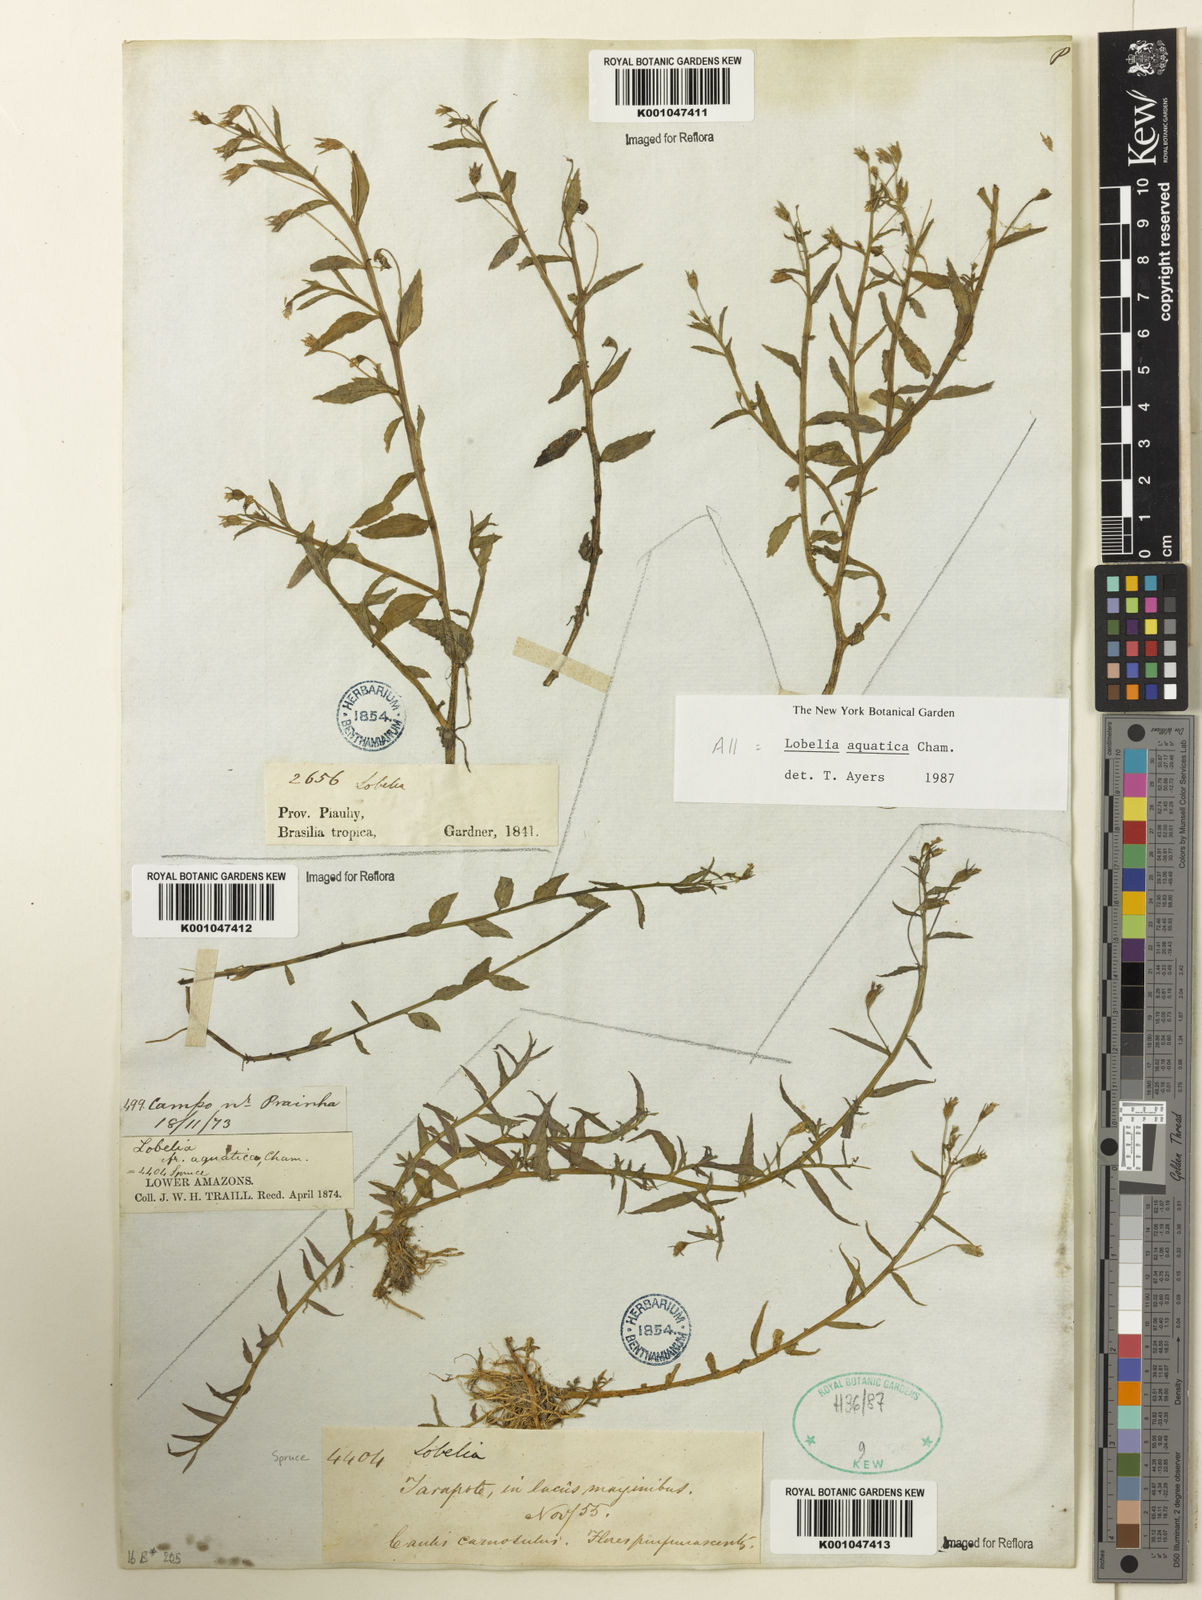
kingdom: Plantae
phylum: Tracheophyta
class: Magnoliopsida
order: Asterales
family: Campanulaceae
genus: Lobelia
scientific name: Lobelia aquatica
